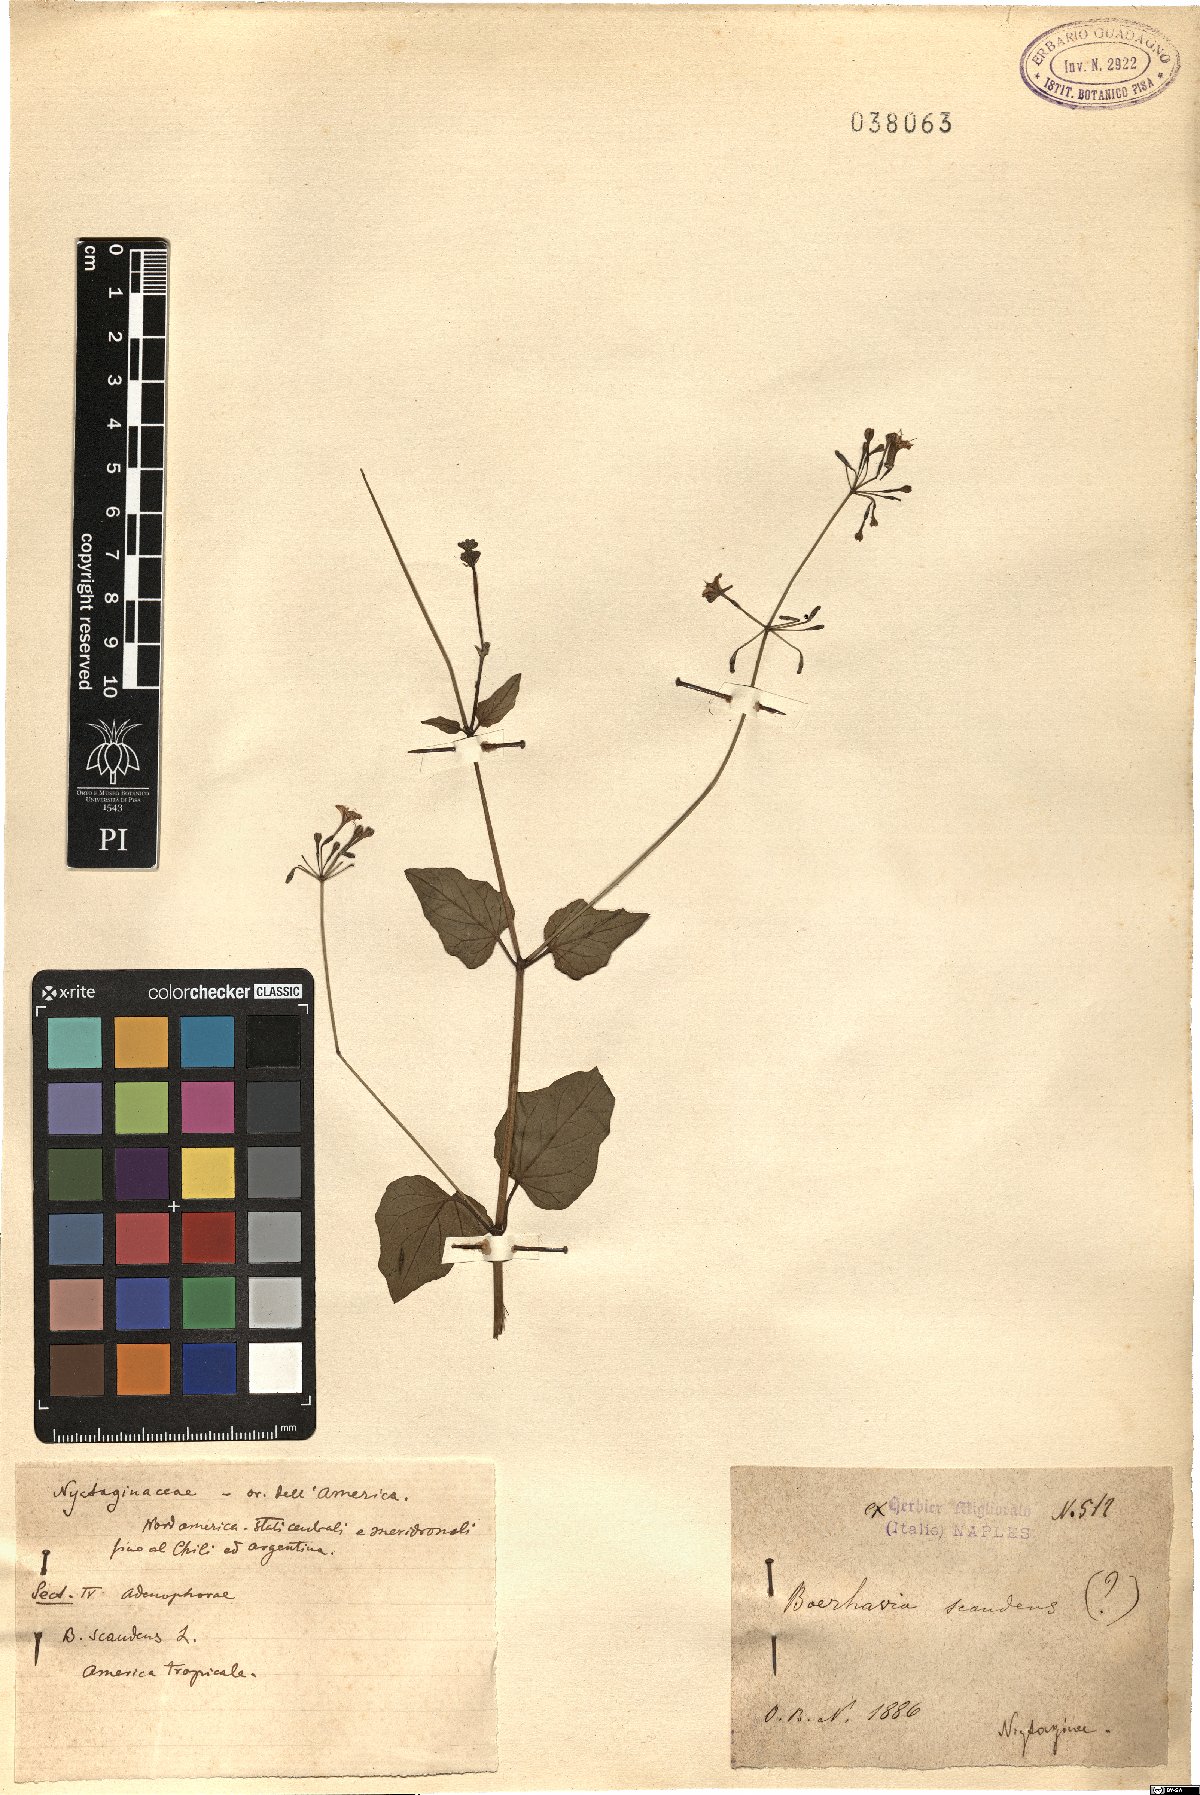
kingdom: Plantae
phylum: Tracheophyta
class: Magnoliopsida
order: Caryophyllales
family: Nyctaginaceae
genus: Commicarpus
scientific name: Commicarpus scandens
